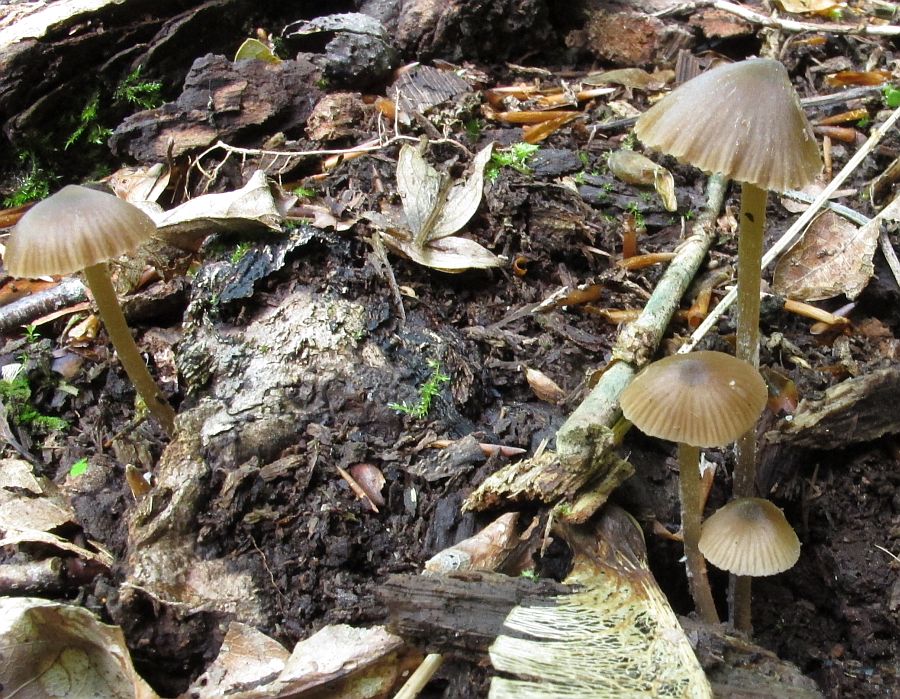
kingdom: Fungi
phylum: Basidiomycota
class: Agaricomycetes
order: Agaricales
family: Entolomataceae
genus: Entoloma
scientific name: Entoloma hebes
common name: krat-rødblad
